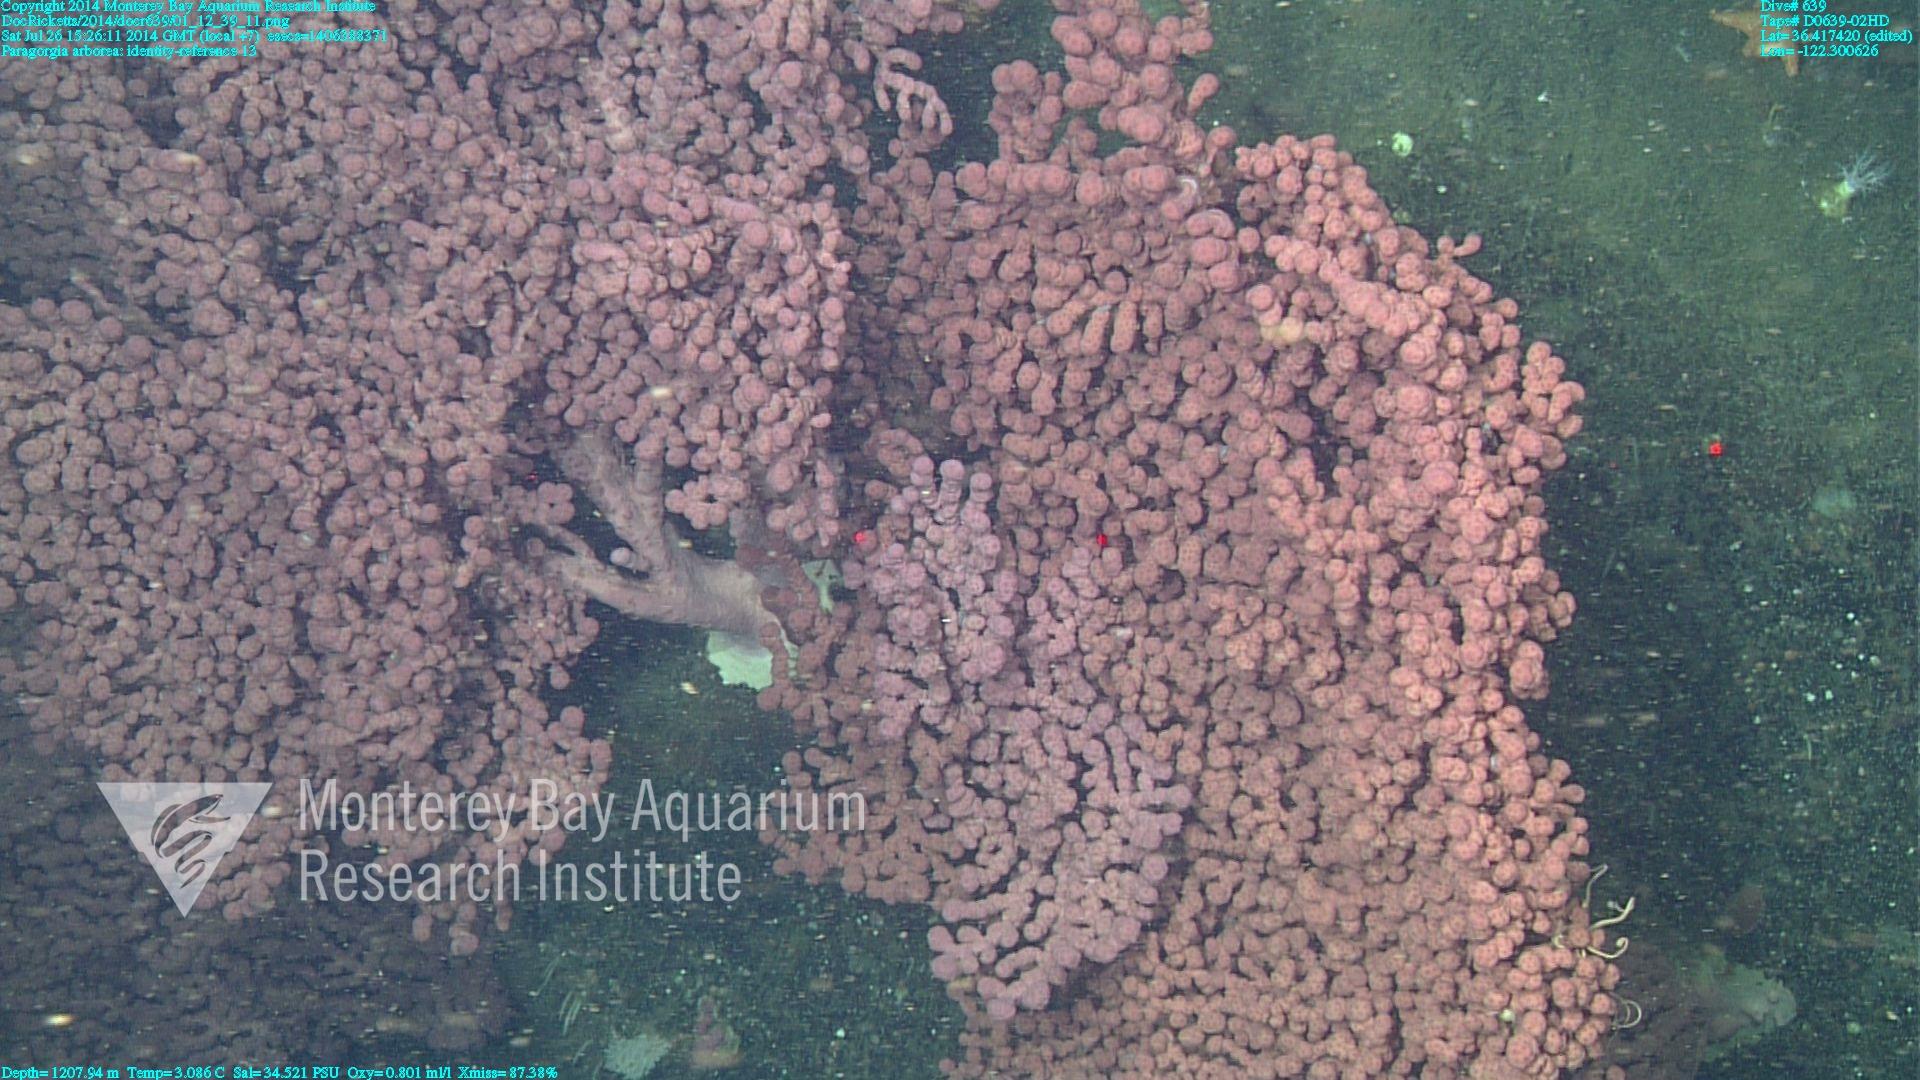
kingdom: Animalia
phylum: Cnidaria
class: Anthozoa
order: Scleralcyonacea
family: Coralliidae
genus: Paragorgia
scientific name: Paragorgia arborea
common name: Bubble gum coral
